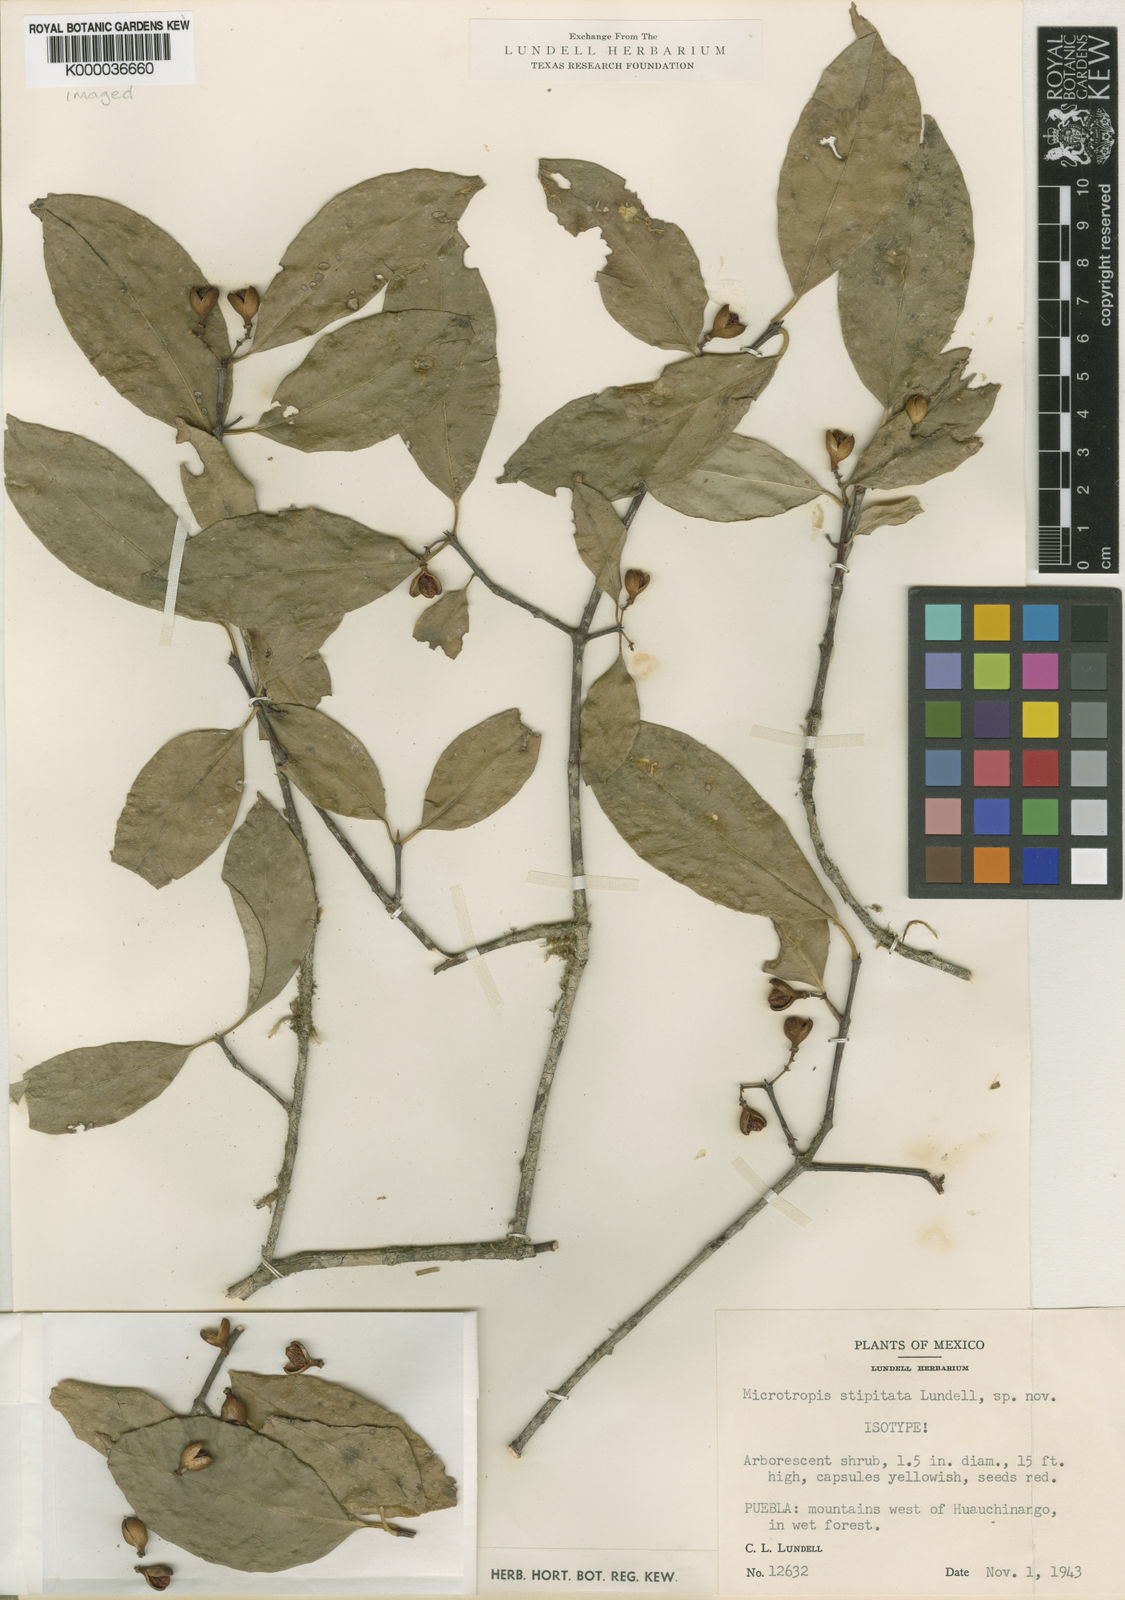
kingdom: Plantae
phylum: Tracheophyta
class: Magnoliopsida
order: Celastrales
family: Celastraceae
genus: Quetzalia
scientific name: Quetzalia stipitata
